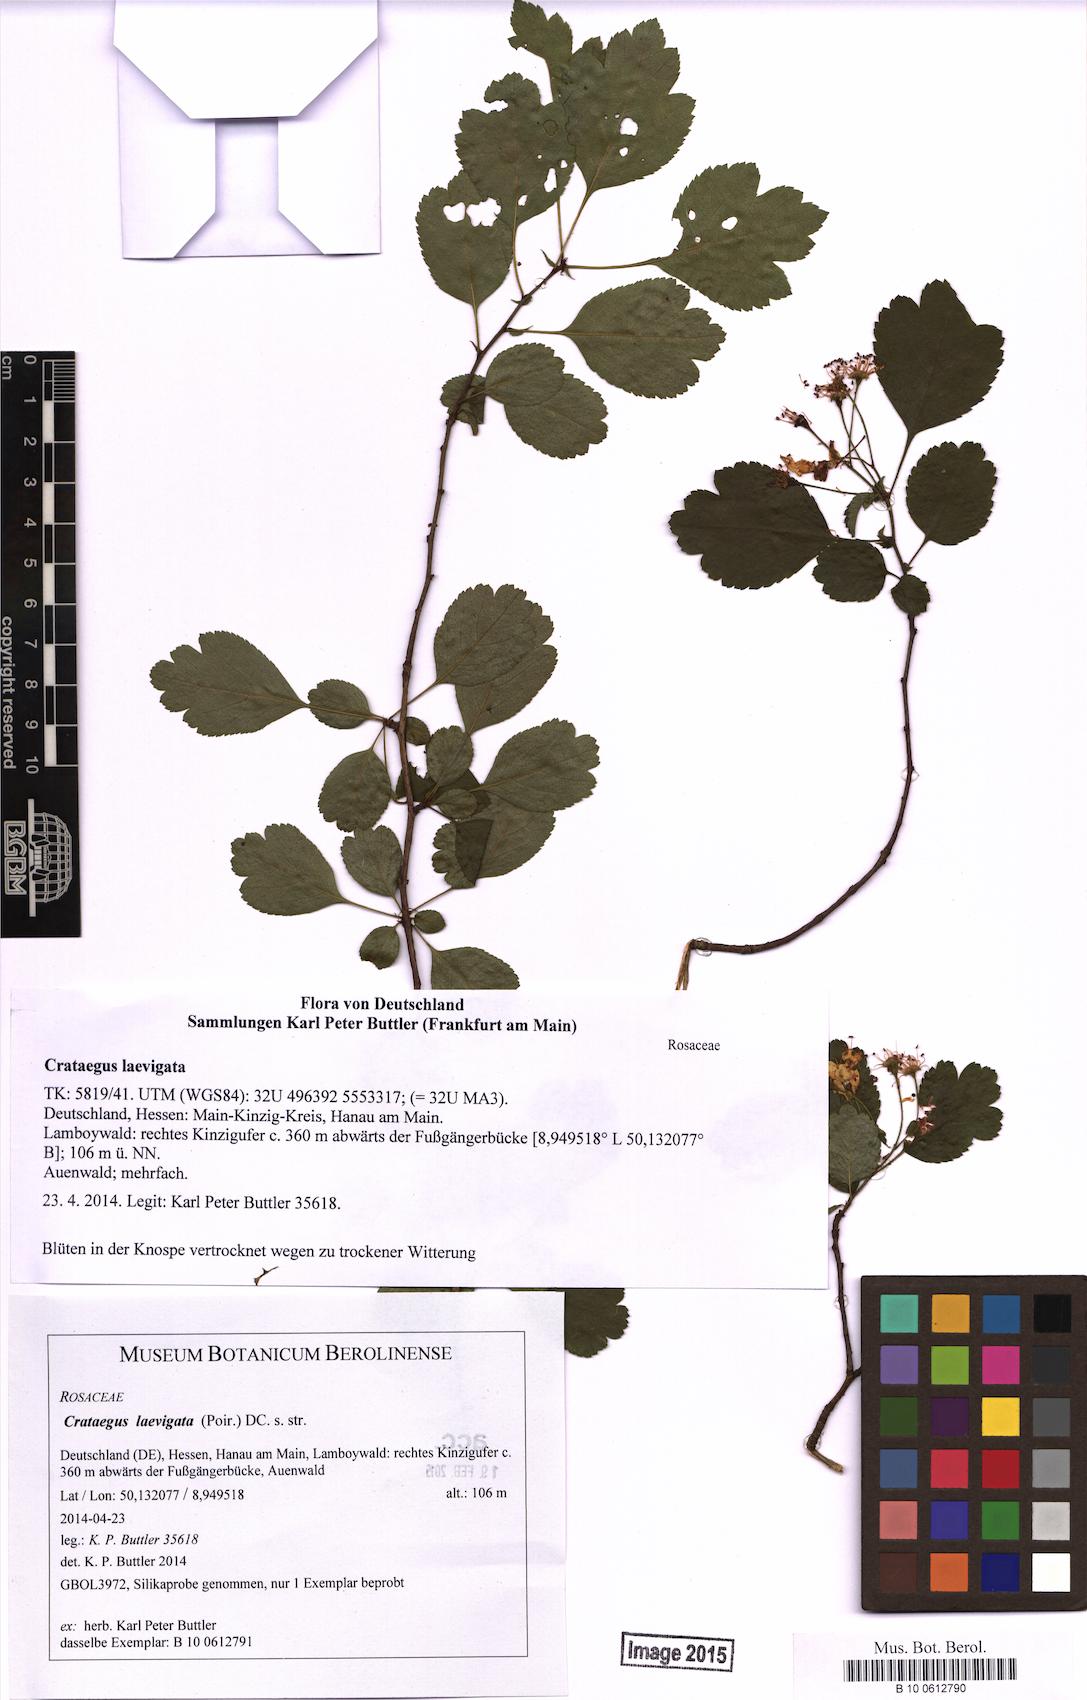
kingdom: Plantae
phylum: Tracheophyta
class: Magnoliopsida
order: Rosales
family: Rosaceae
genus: Crataegus
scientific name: Crataegus laevigata
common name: Midland hawthorn
